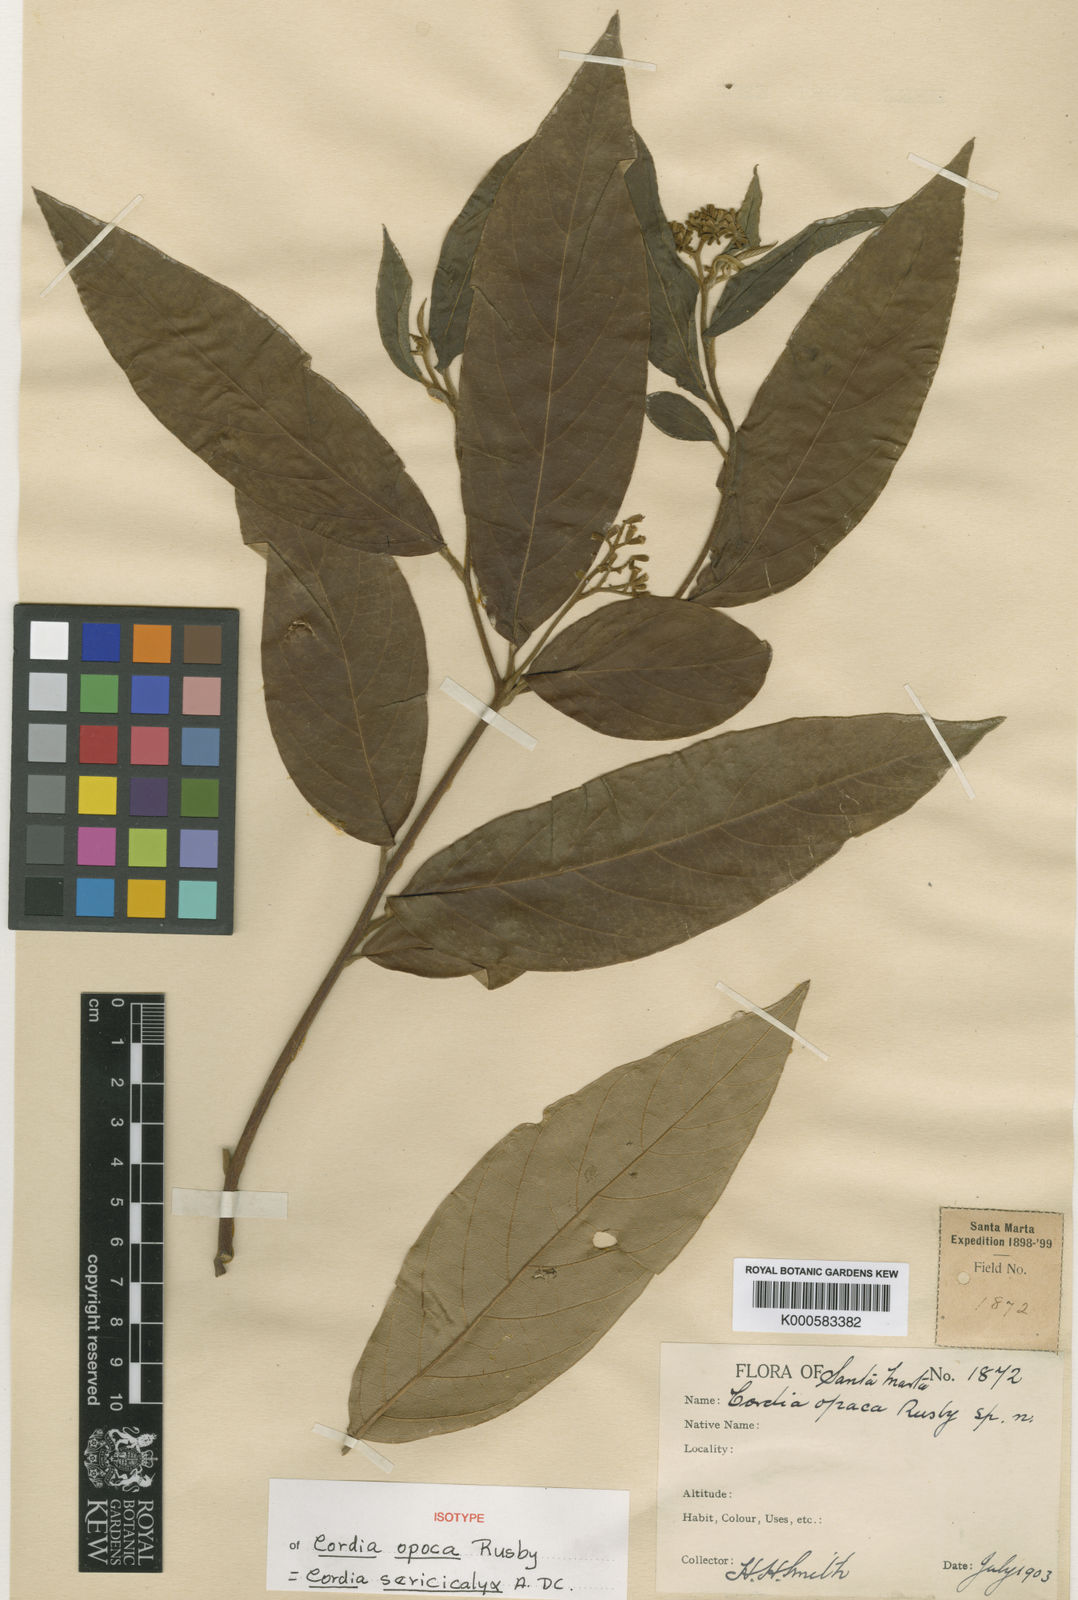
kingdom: Plantae
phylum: Tracheophyta
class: Magnoliopsida
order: Boraginales
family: Cordiaceae
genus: Cordia
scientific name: Cordia sericicalyx
